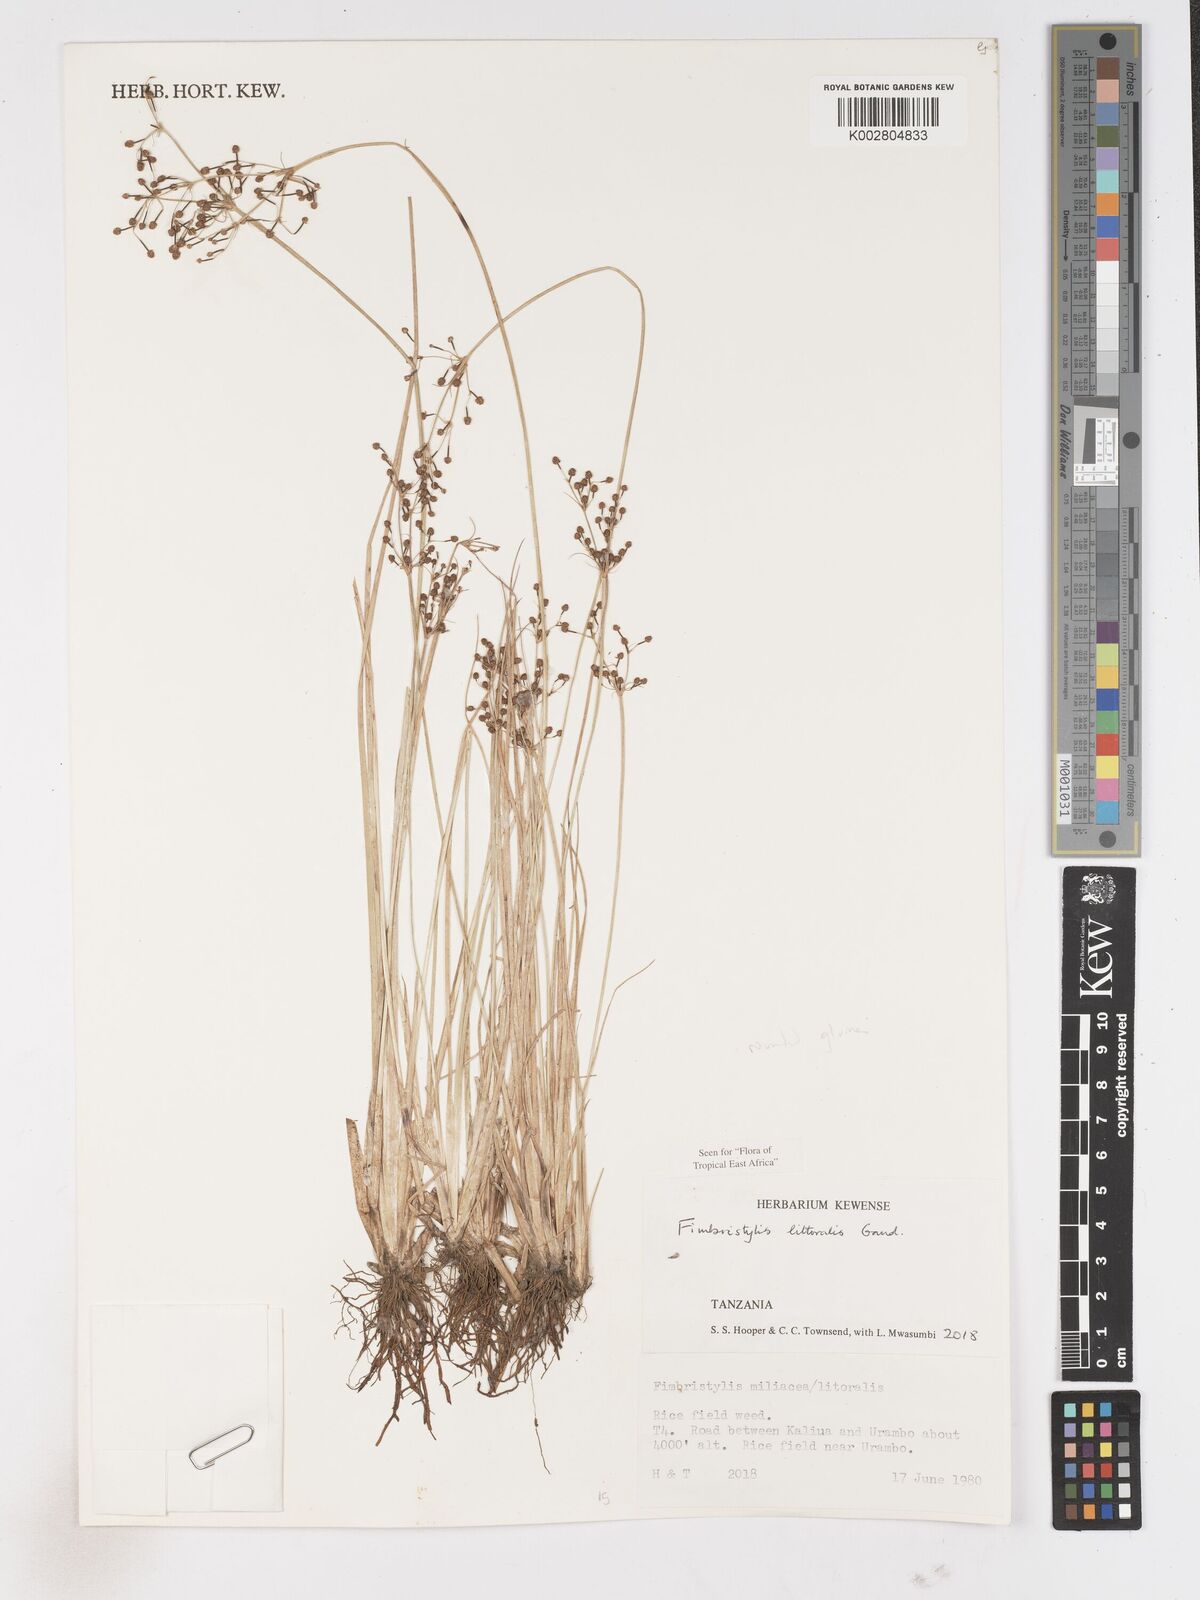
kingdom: Plantae
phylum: Tracheophyta
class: Liliopsida
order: Poales
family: Cyperaceae
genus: Fimbristylis
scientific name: Fimbristylis littoralis
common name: Fimbry
